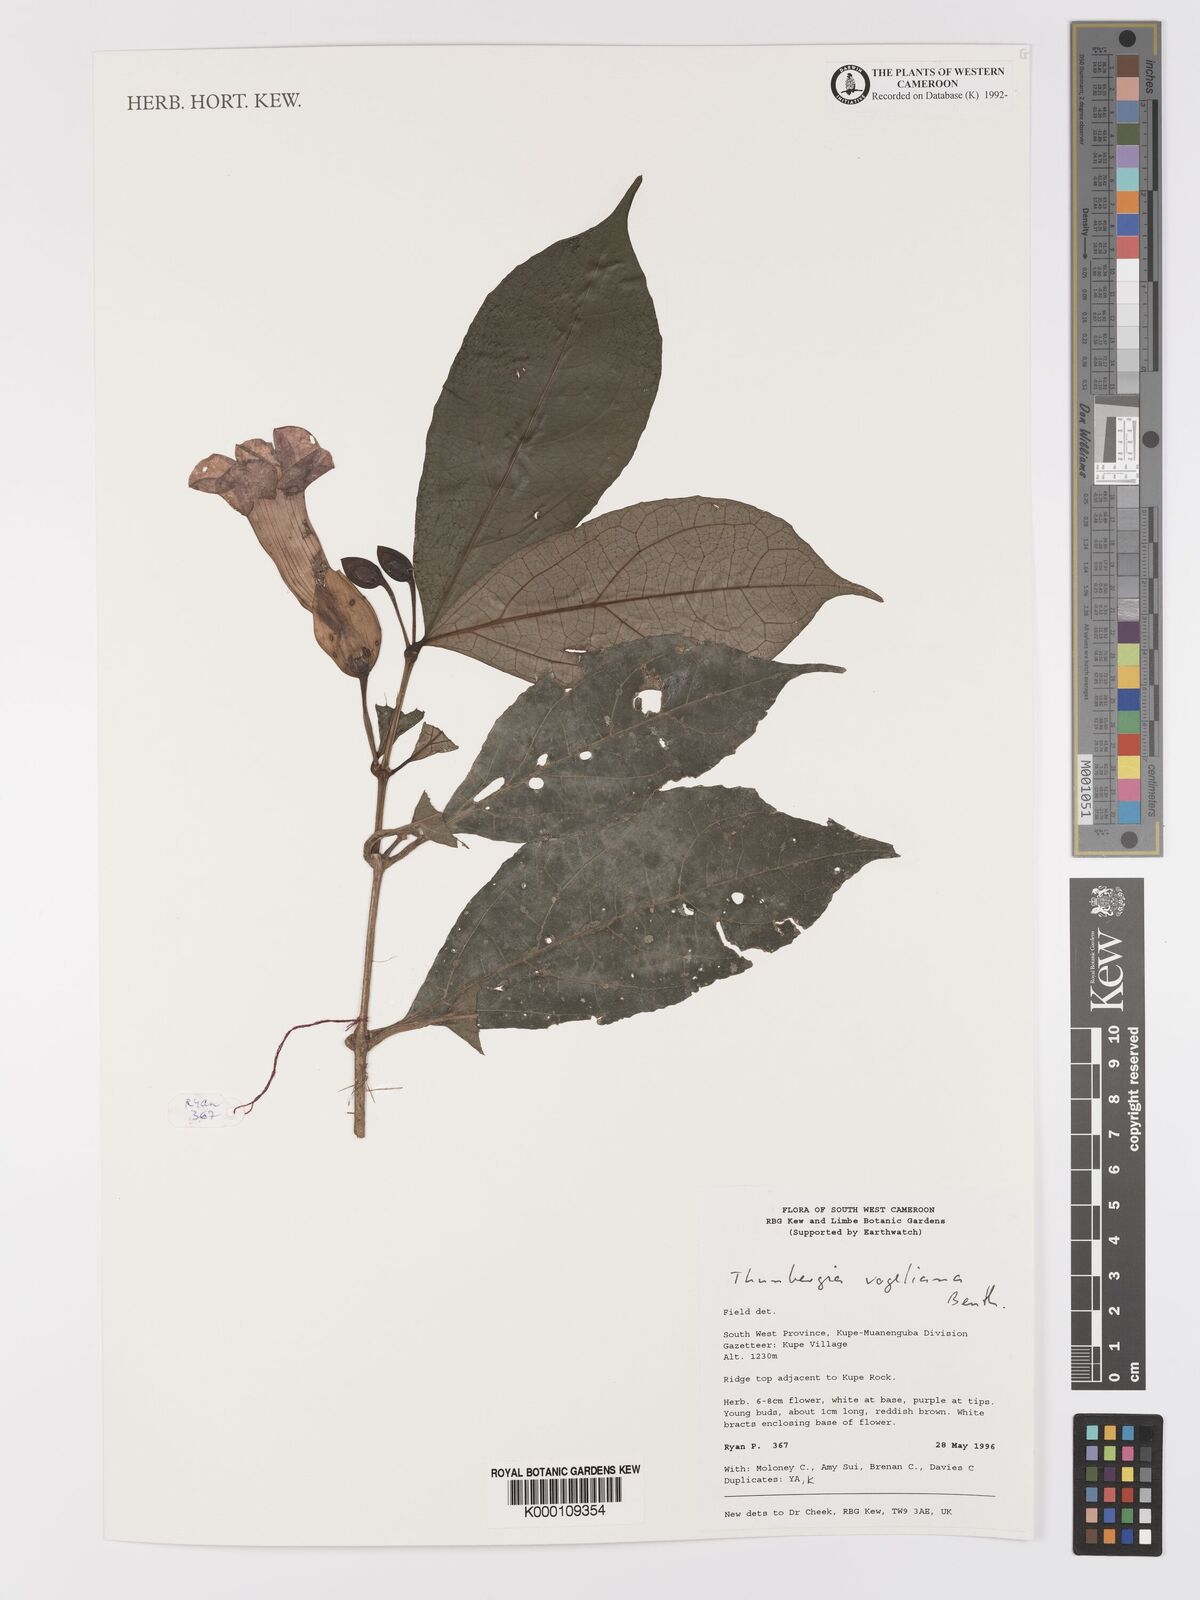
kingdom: Plantae
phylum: Tracheophyta
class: Magnoliopsida
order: Lamiales
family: Acanthaceae
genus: Thunbergia
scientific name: Thunbergia vogeliana
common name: Acanthaceae
